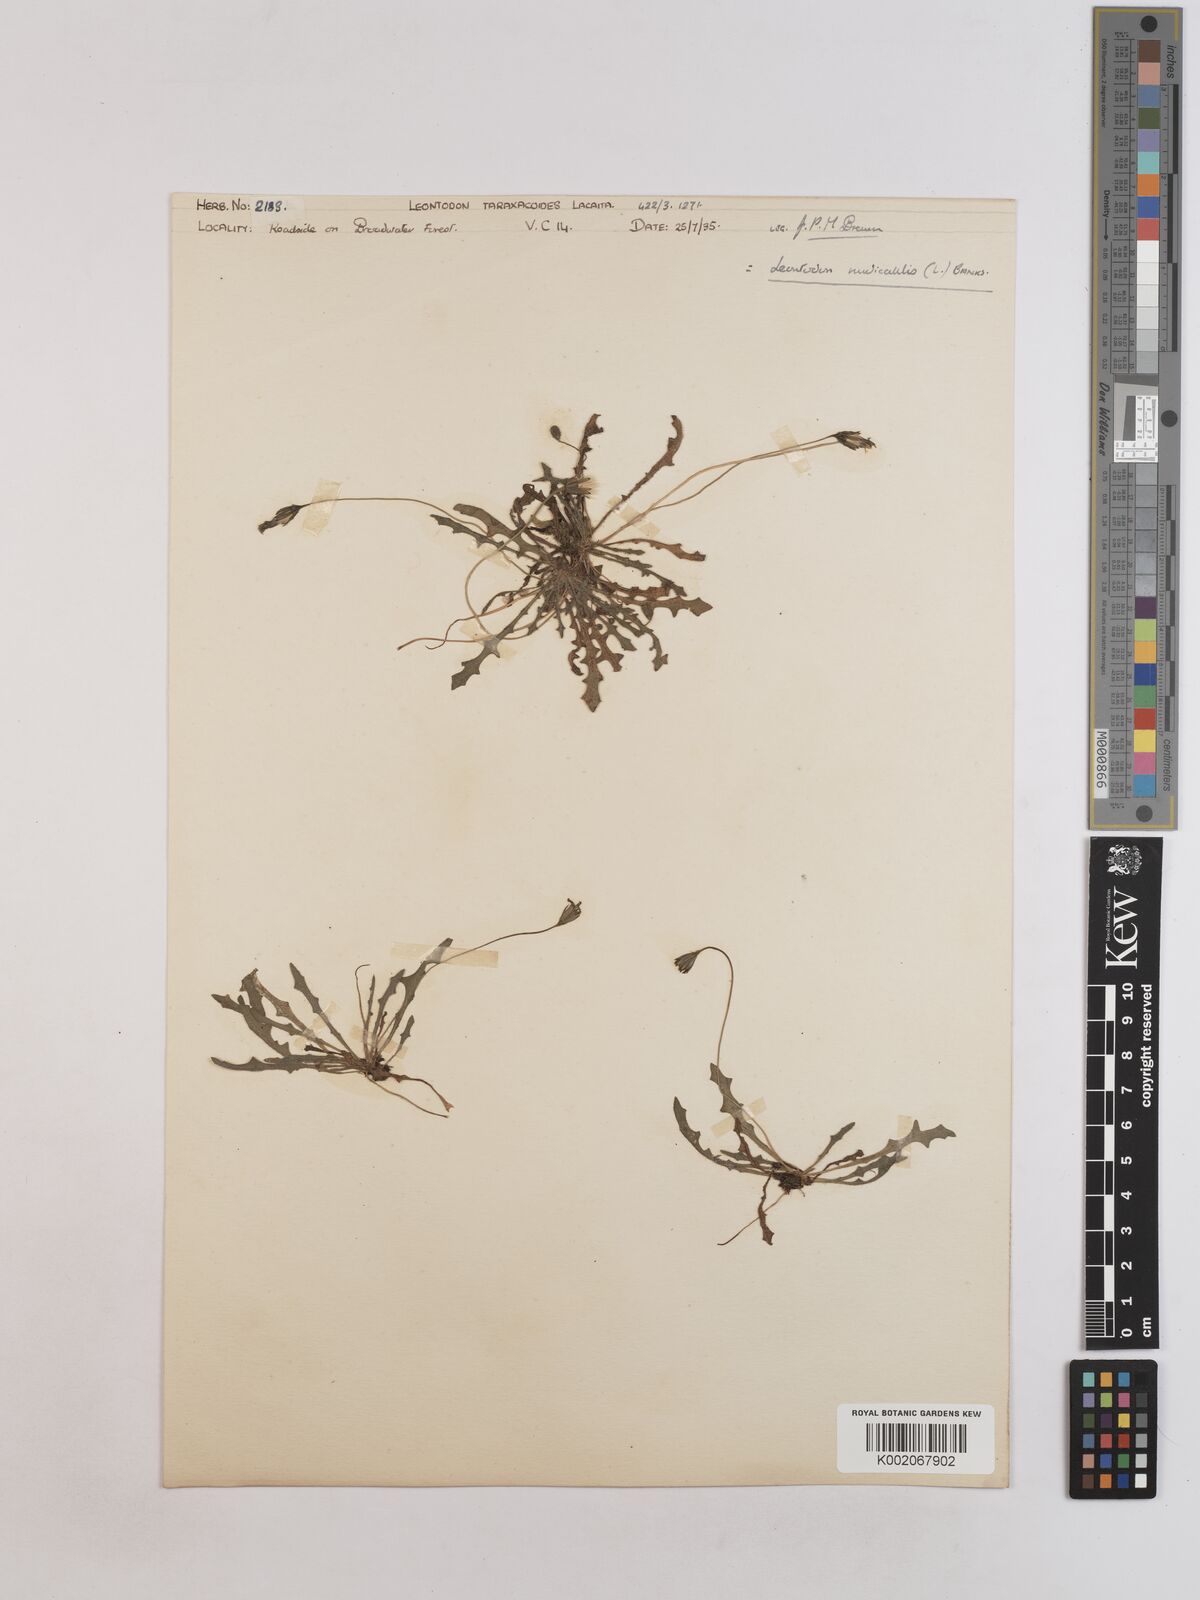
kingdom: Plantae
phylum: Tracheophyta
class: Magnoliopsida
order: Asterales
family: Asteraceae
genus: Thrincia
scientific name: Thrincia saxatilis
